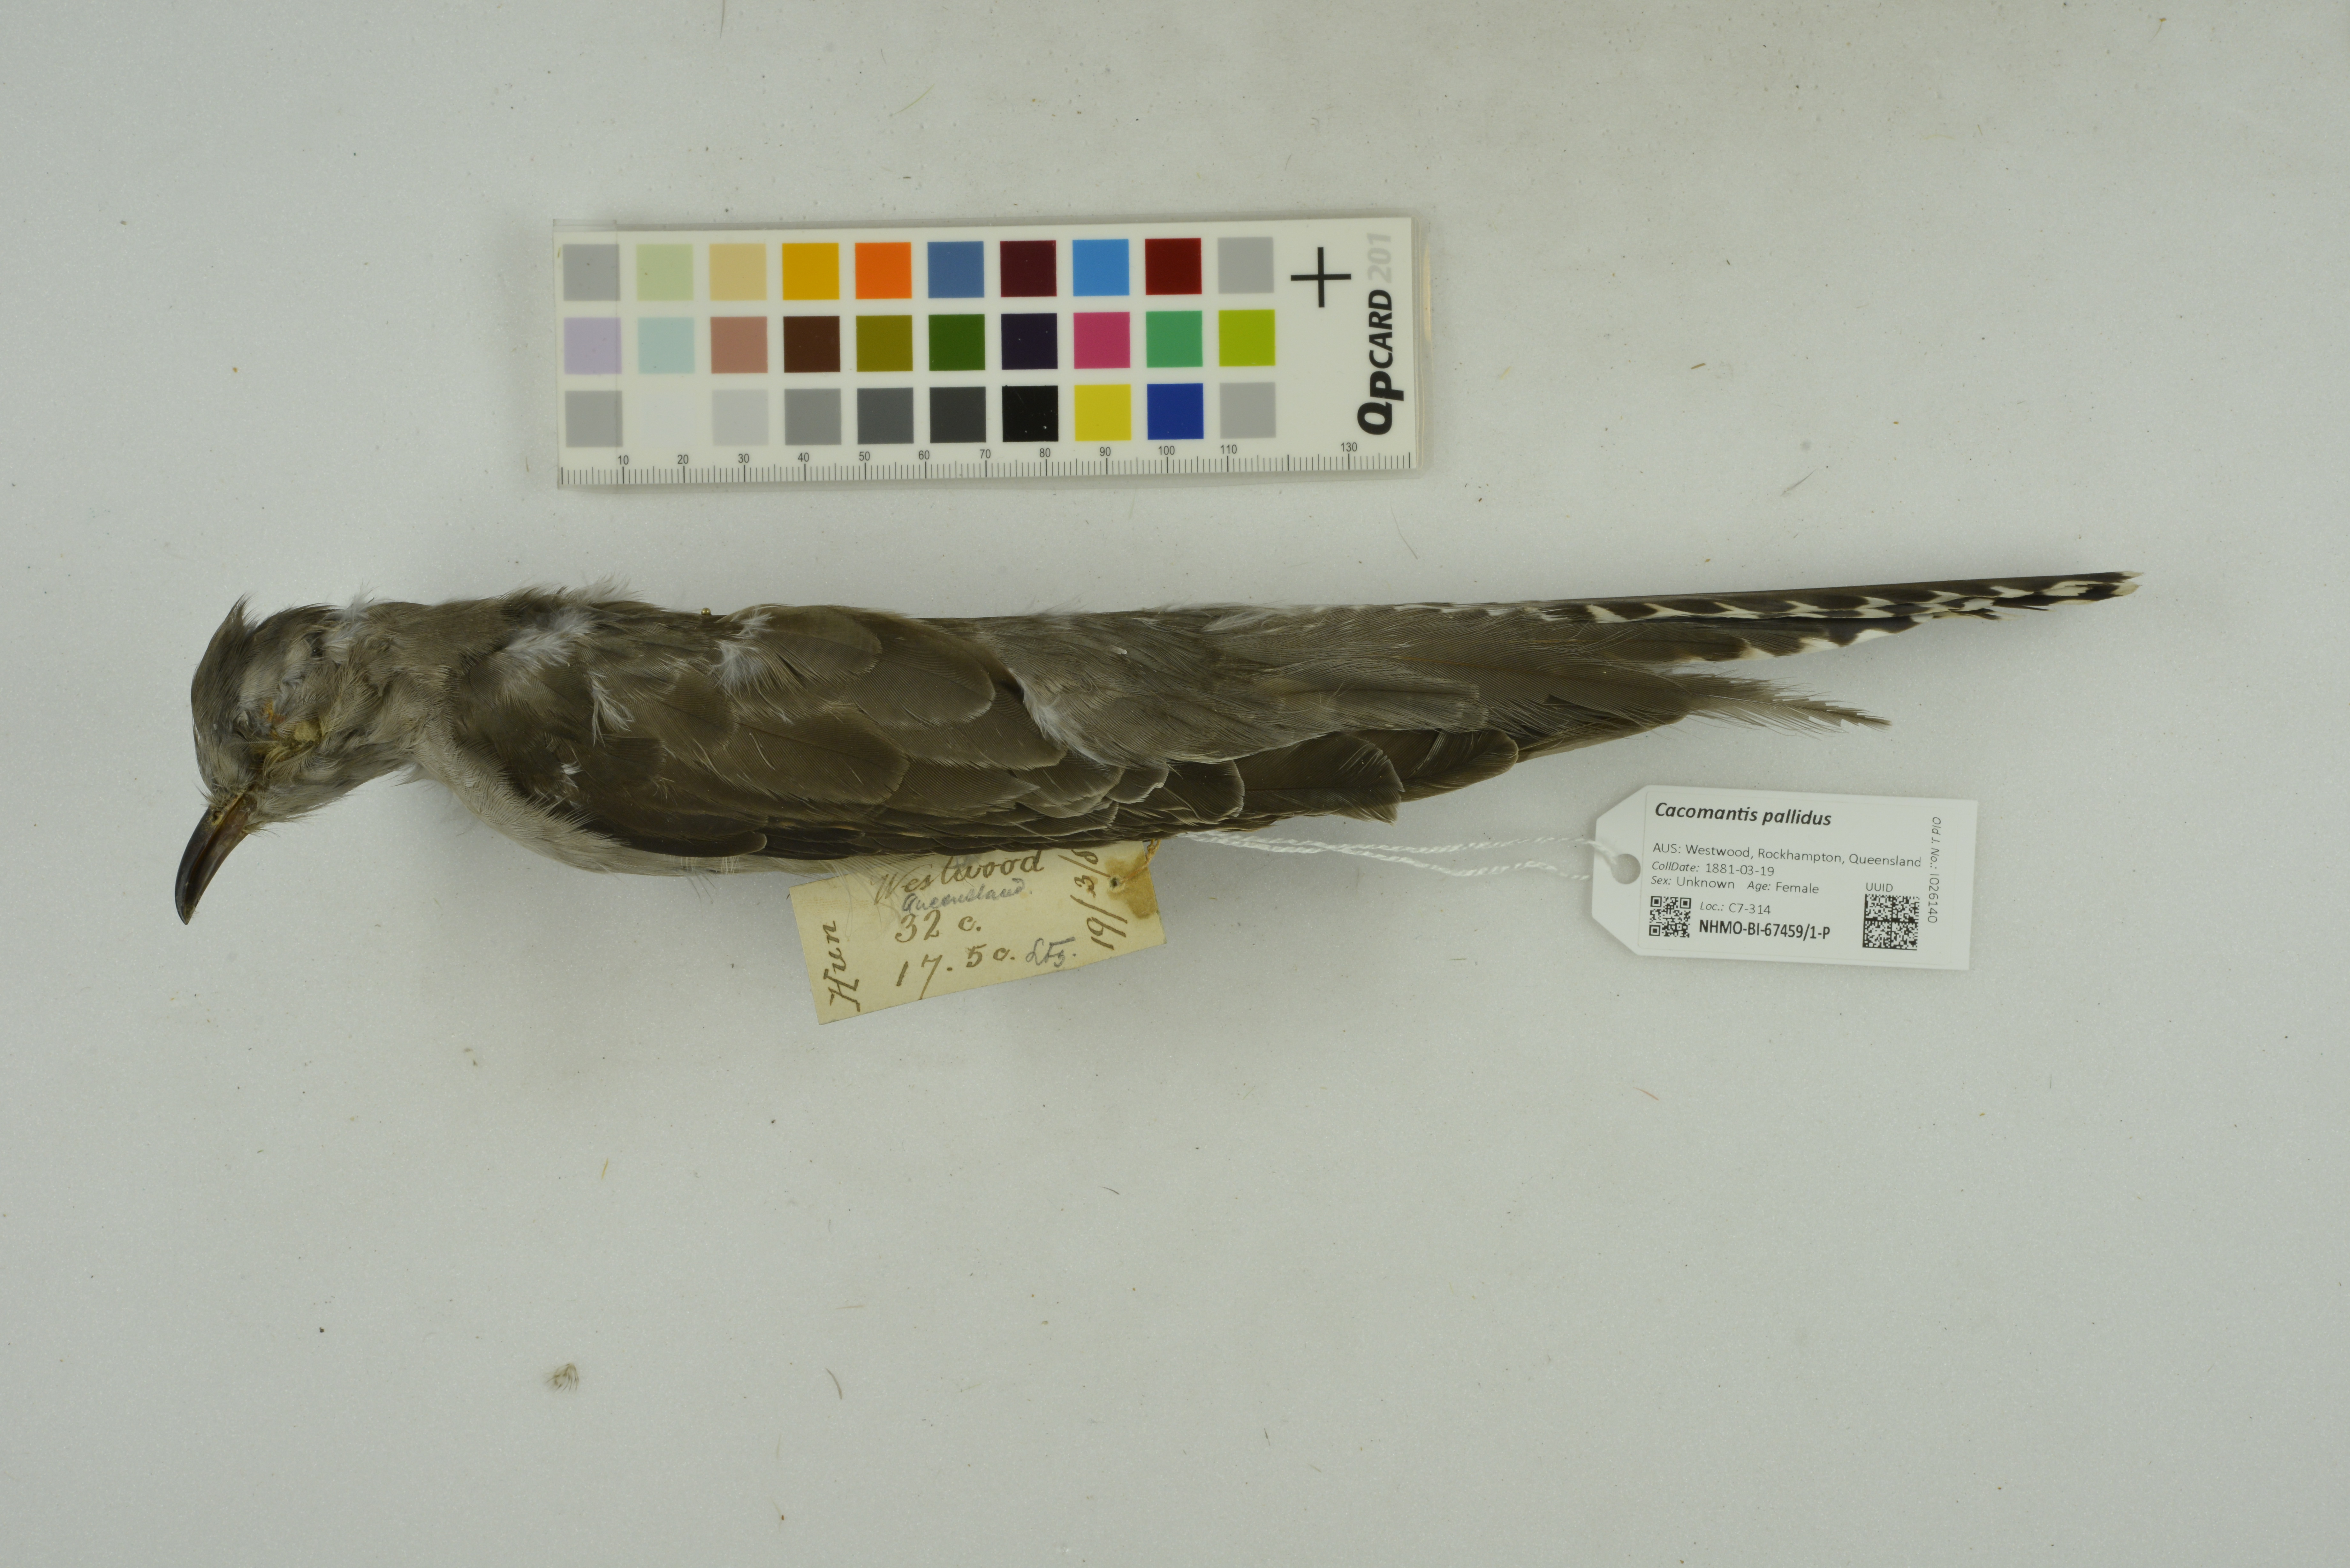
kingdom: Animalia
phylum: Chordata
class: Aves
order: Cuculiformes
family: Cuculidae
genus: Cuculus
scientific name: Cuculus pallidus
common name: Pallid cuckoo
